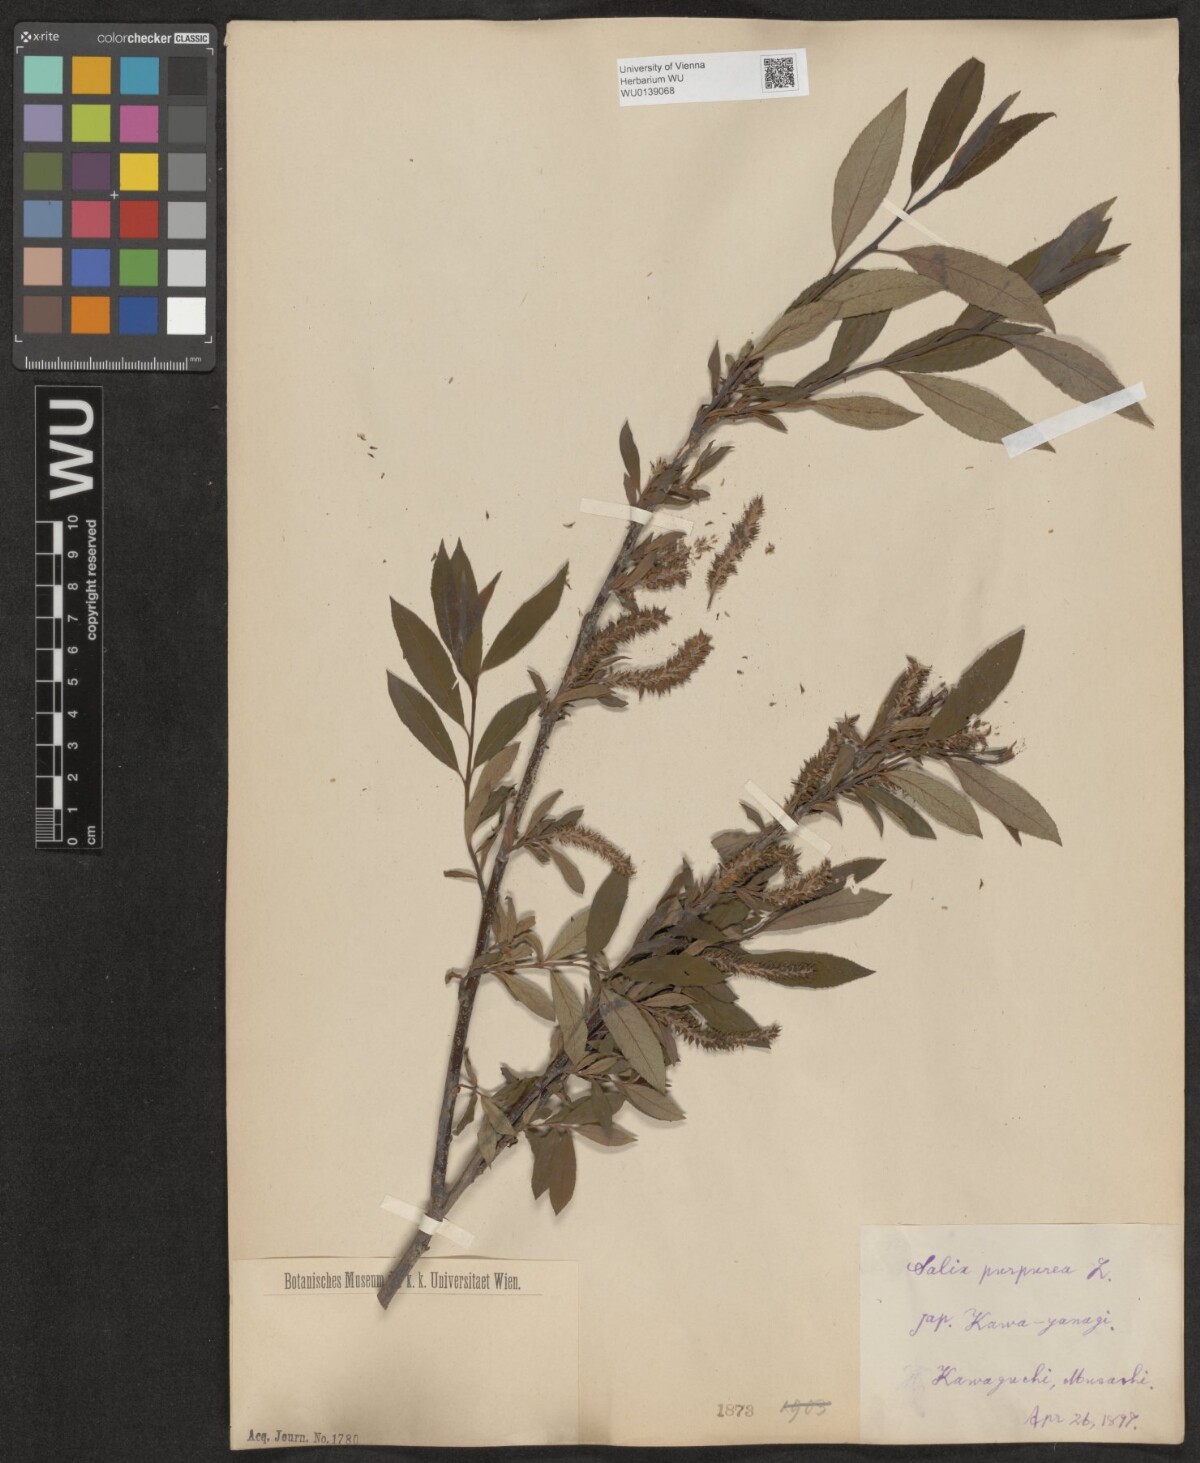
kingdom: Plantae
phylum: Tracheophyta
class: Magnoliopsida
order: Malpighiales
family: Salicaceae
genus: Salix
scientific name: Salix purpurea
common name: Purple willow
